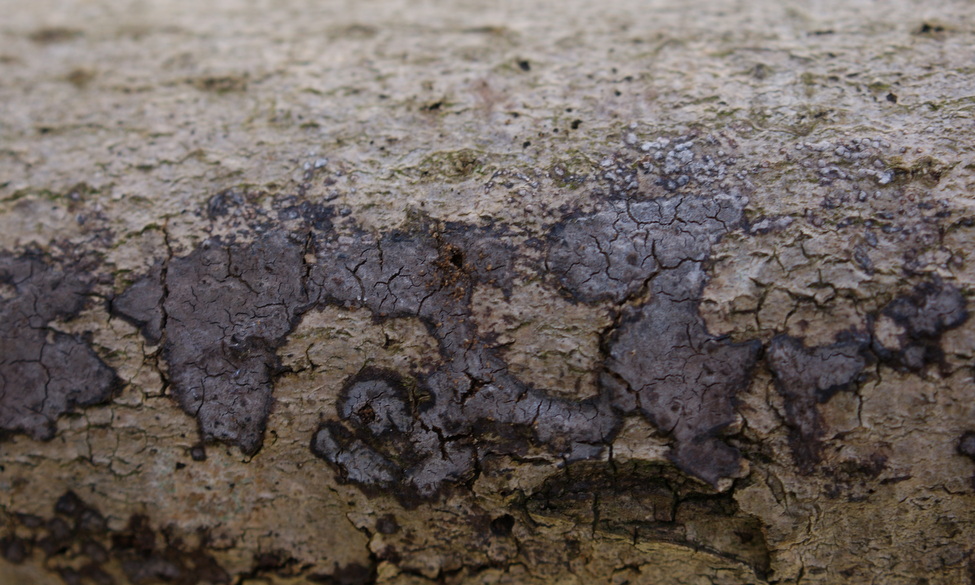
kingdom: Fungi
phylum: Basidiomycota
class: Agaricomycetes
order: Russulales
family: Peniophoraceae
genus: Peniophora
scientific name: Peniophora limitata
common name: mørkrandet voksskind
